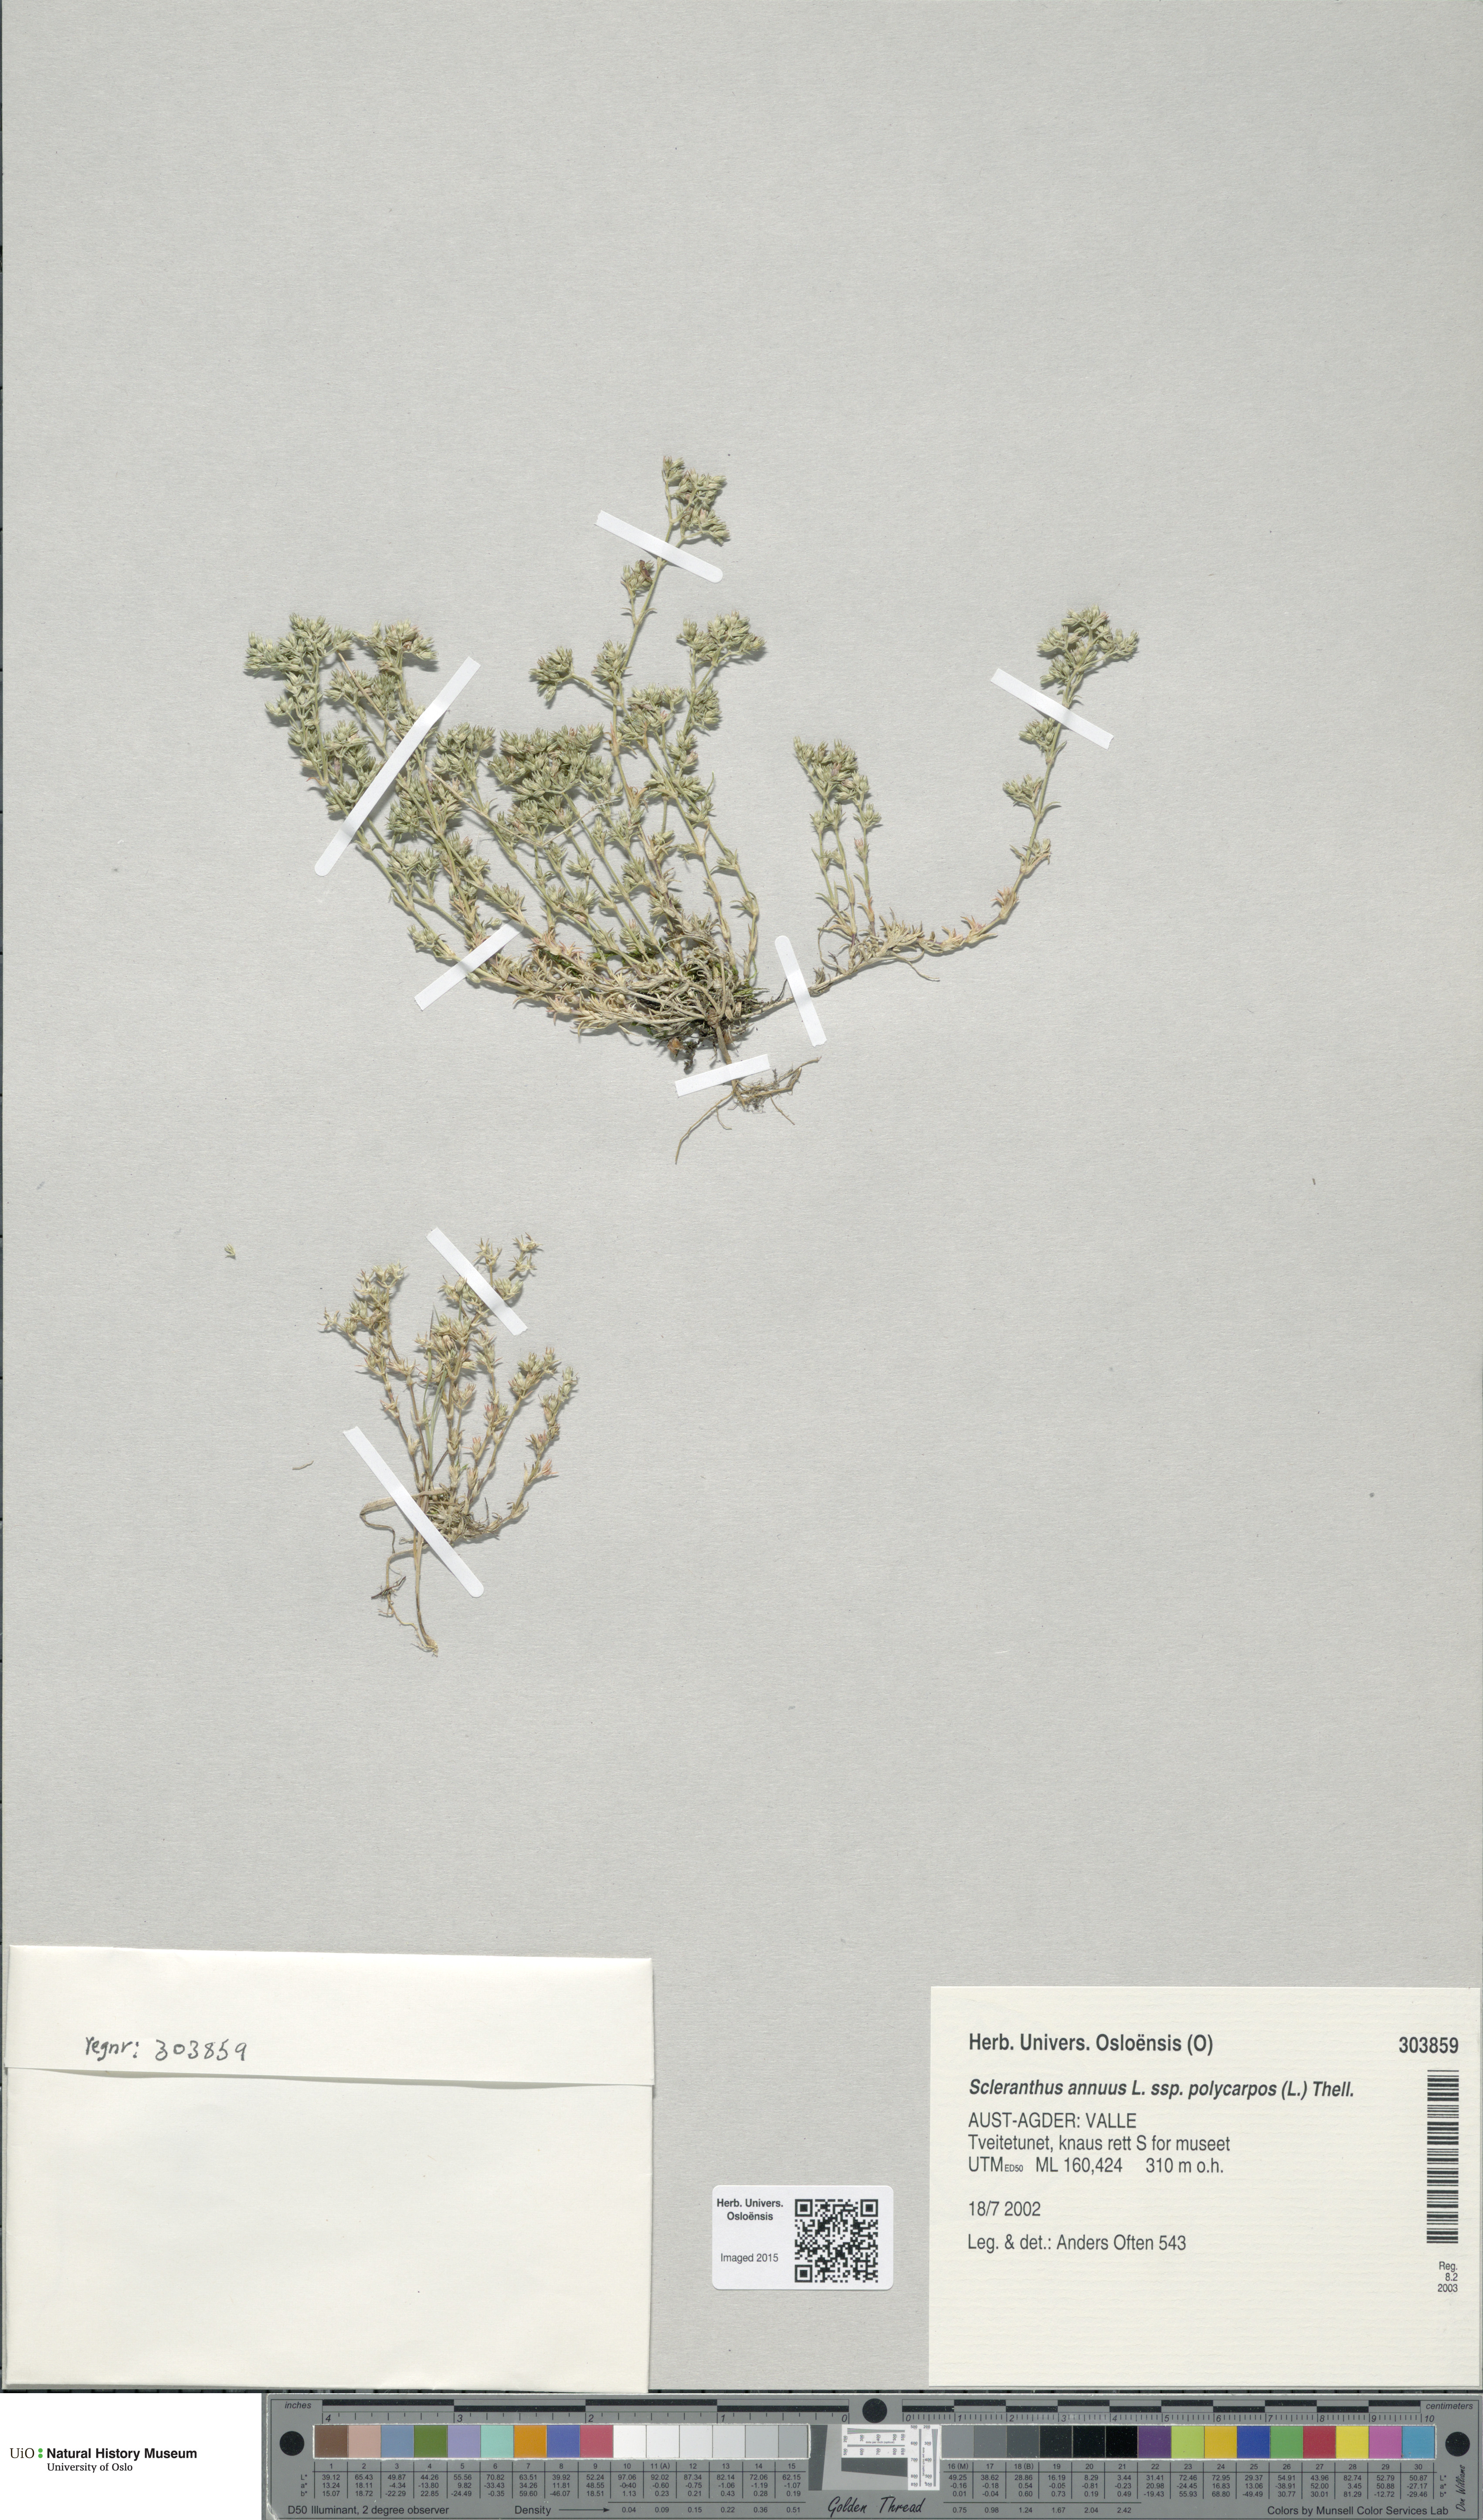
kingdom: Plantae
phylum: Tracheophyta
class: Magnoliopsida
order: Caryophyllales
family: Caryophyllaceae
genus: Scleranthus
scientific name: Scleranthus annuus
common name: Annual knawel
